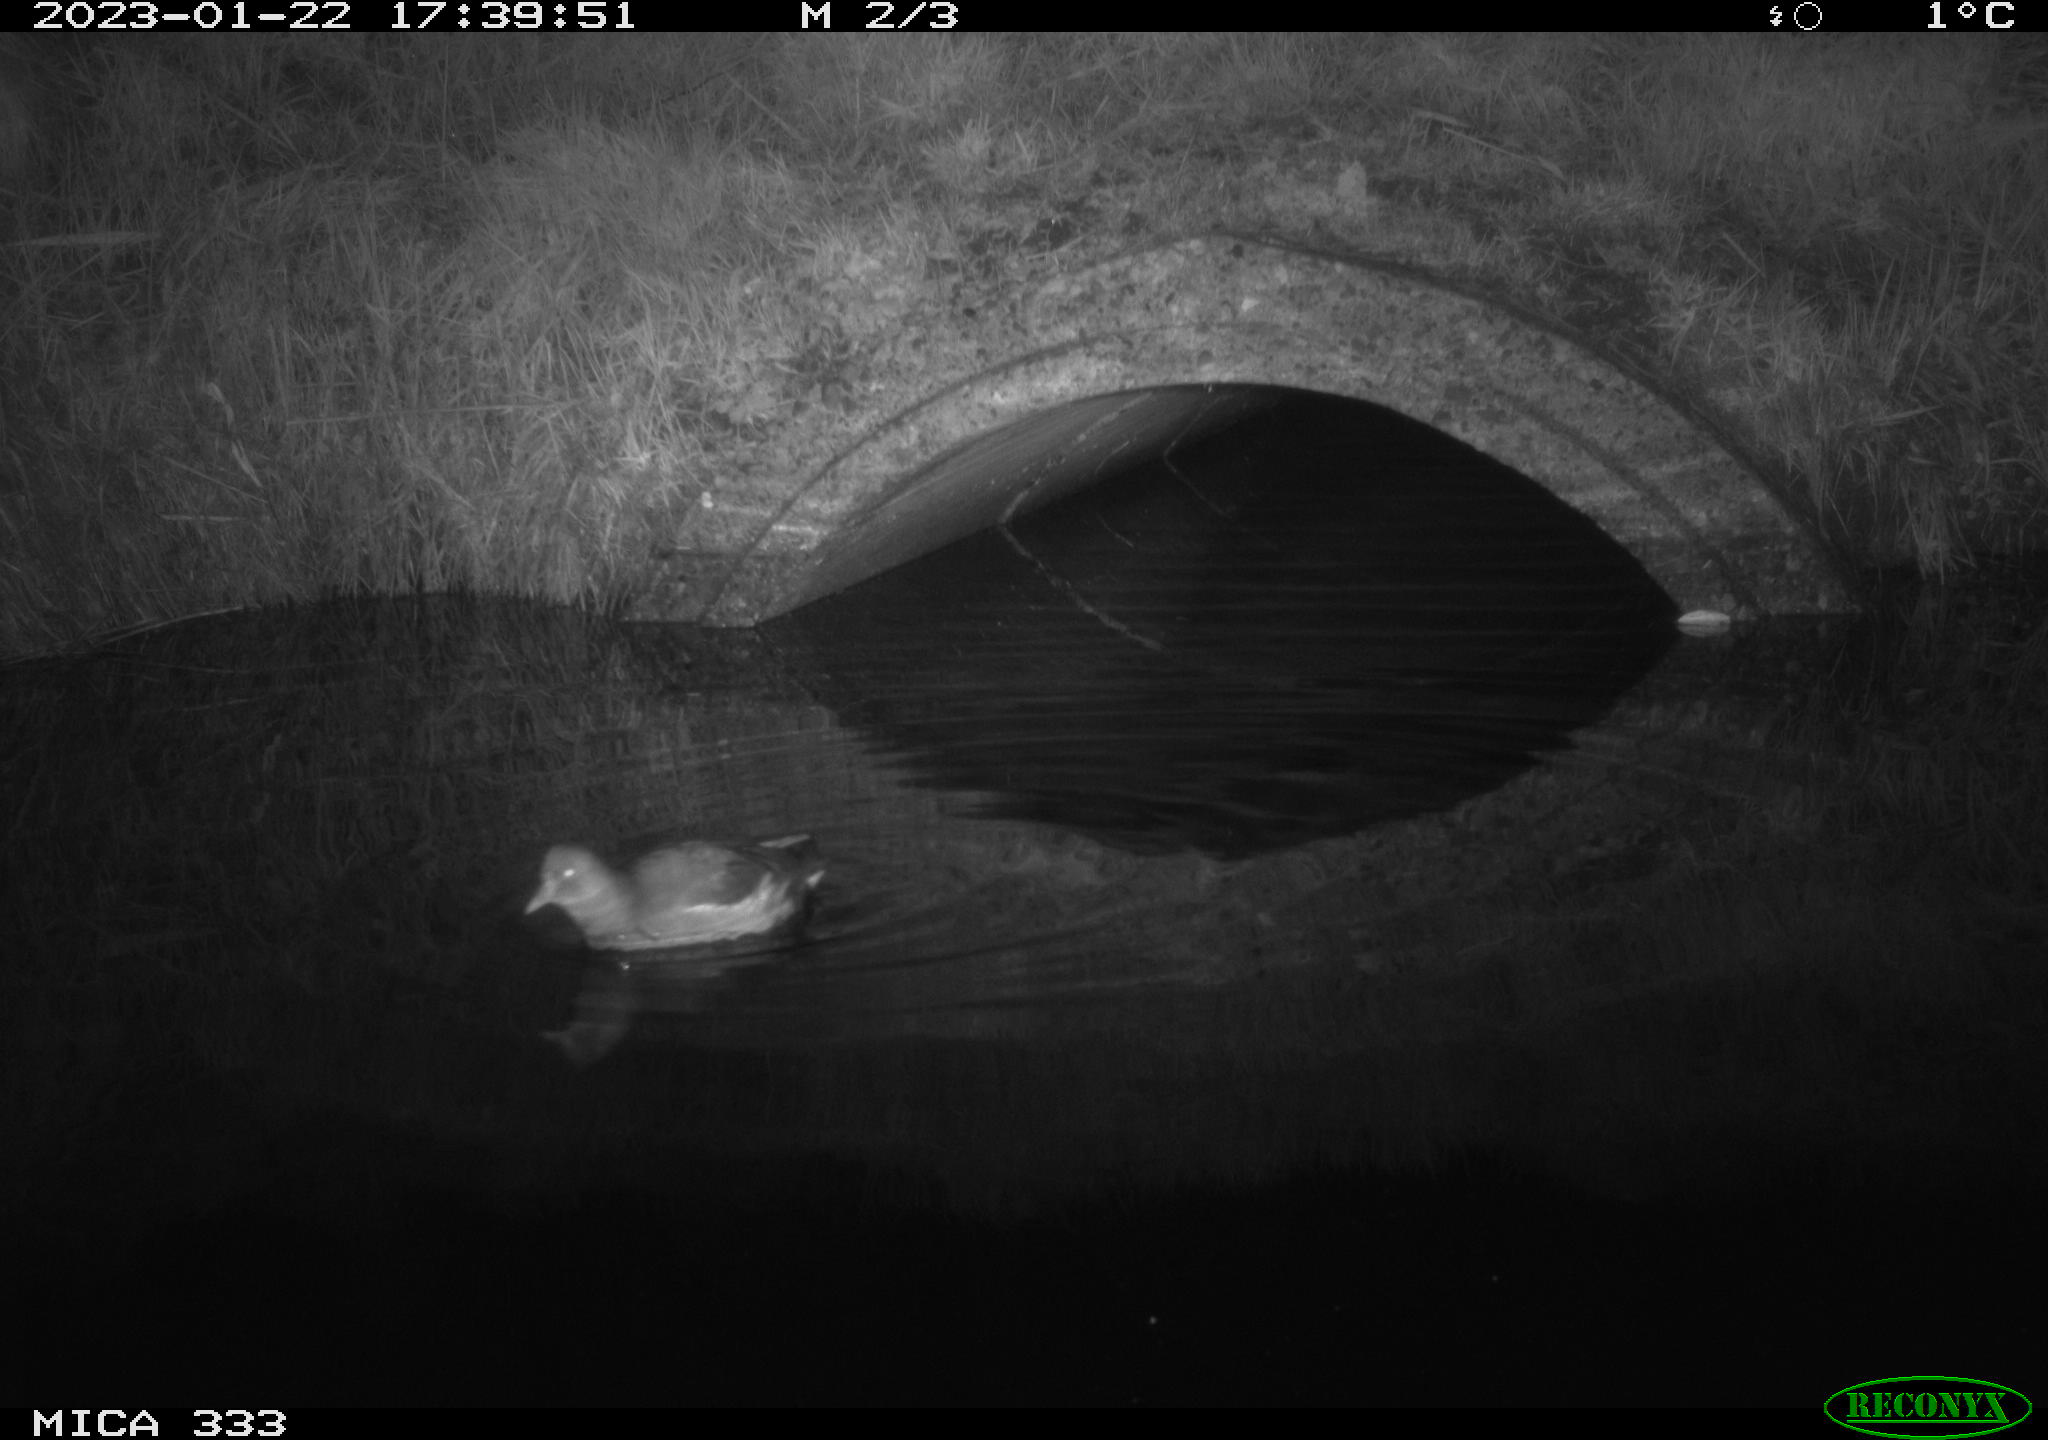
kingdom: Animalia
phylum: Chordata
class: Aves
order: Gruiformes
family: Rallidae
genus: Gallinula
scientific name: Gallinula chloropus
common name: Common moorhen
